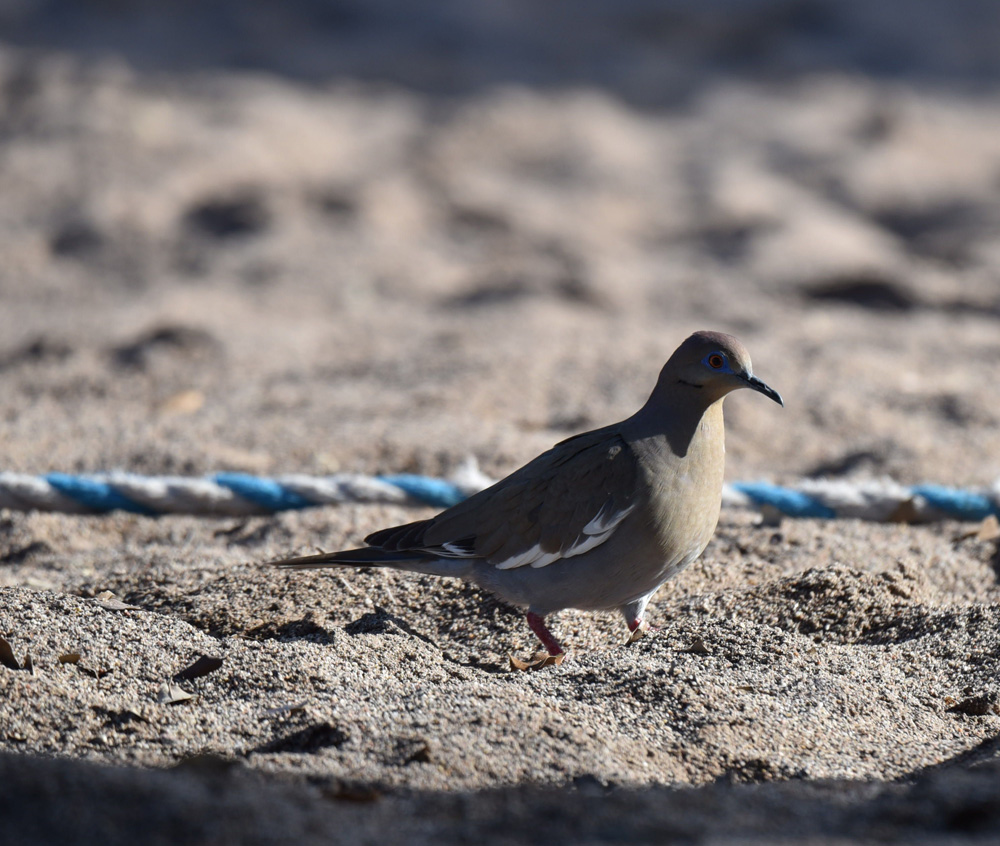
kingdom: Animalia
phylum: Chordata
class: Aves
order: Columbiformes
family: Columbidae
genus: Zenaida
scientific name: Zenaida asiatica
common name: White-winged dove
